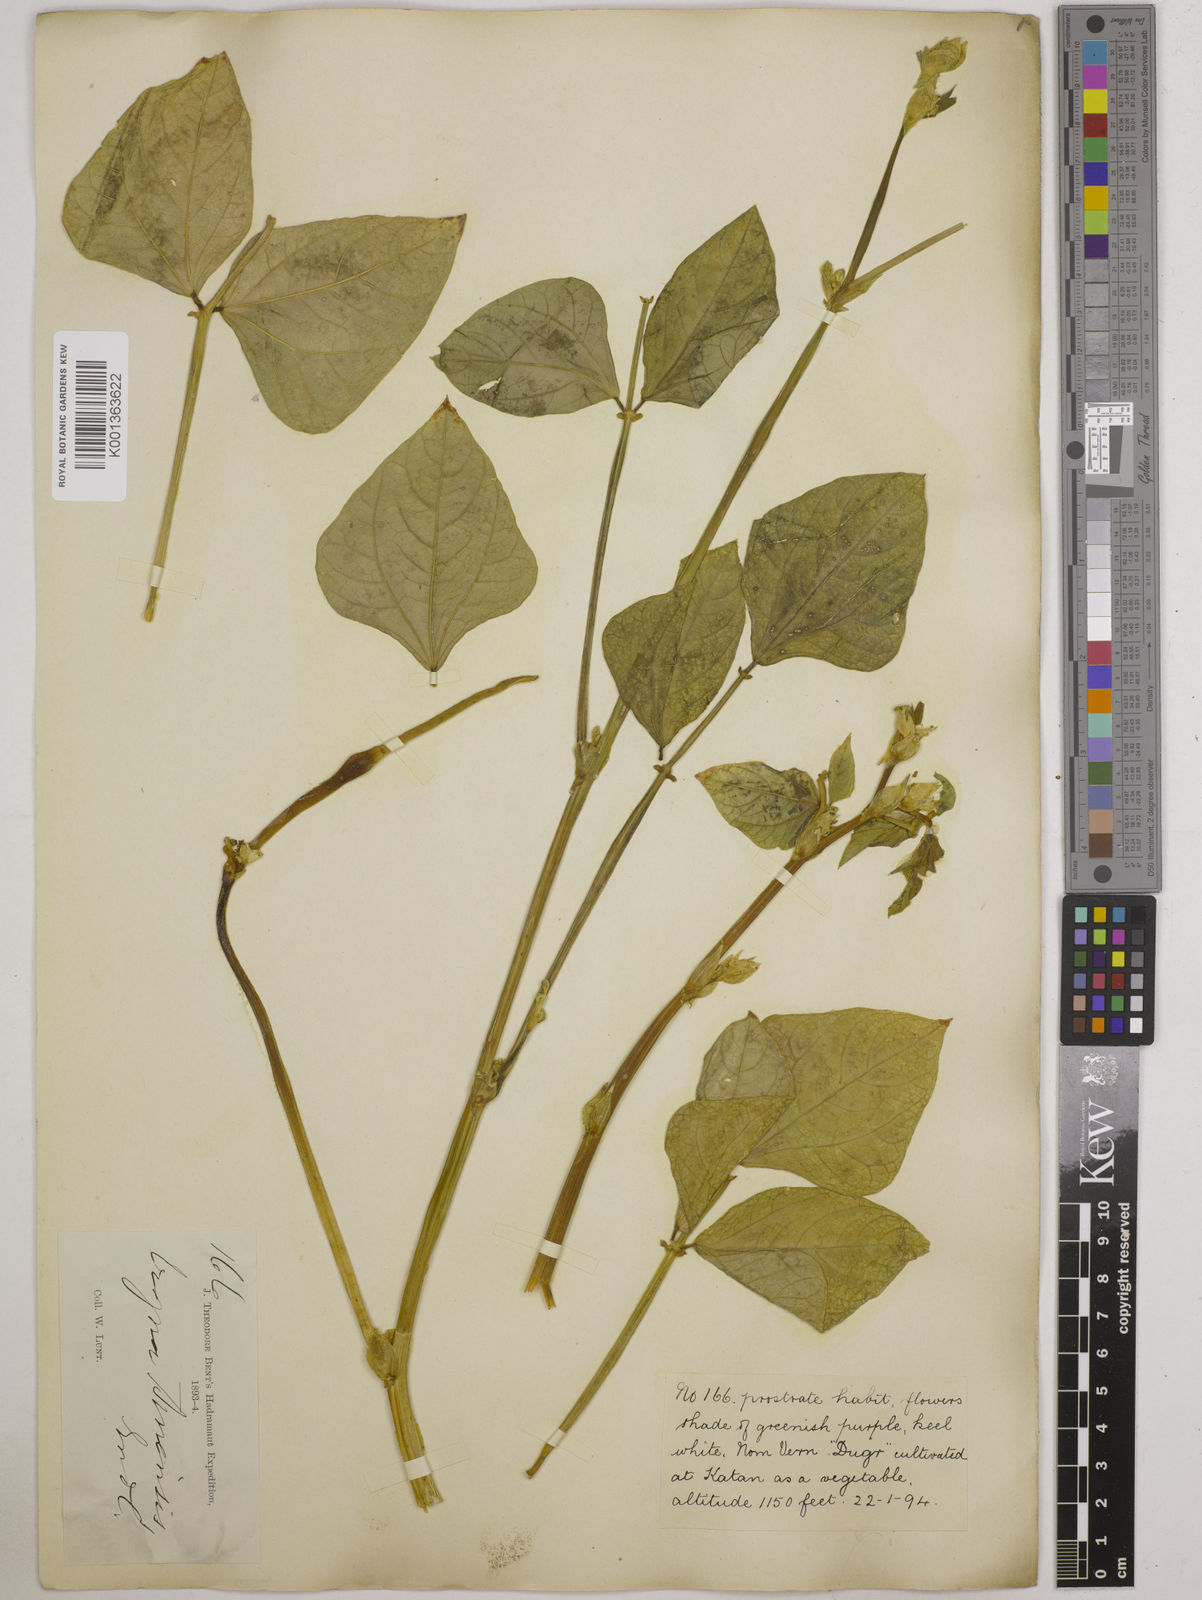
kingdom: Plantae
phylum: Tracheophyta
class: Magnoliopsida
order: Fabales
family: Fabaceae
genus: Vigna
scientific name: Vigna unguiculata
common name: Cowpea
